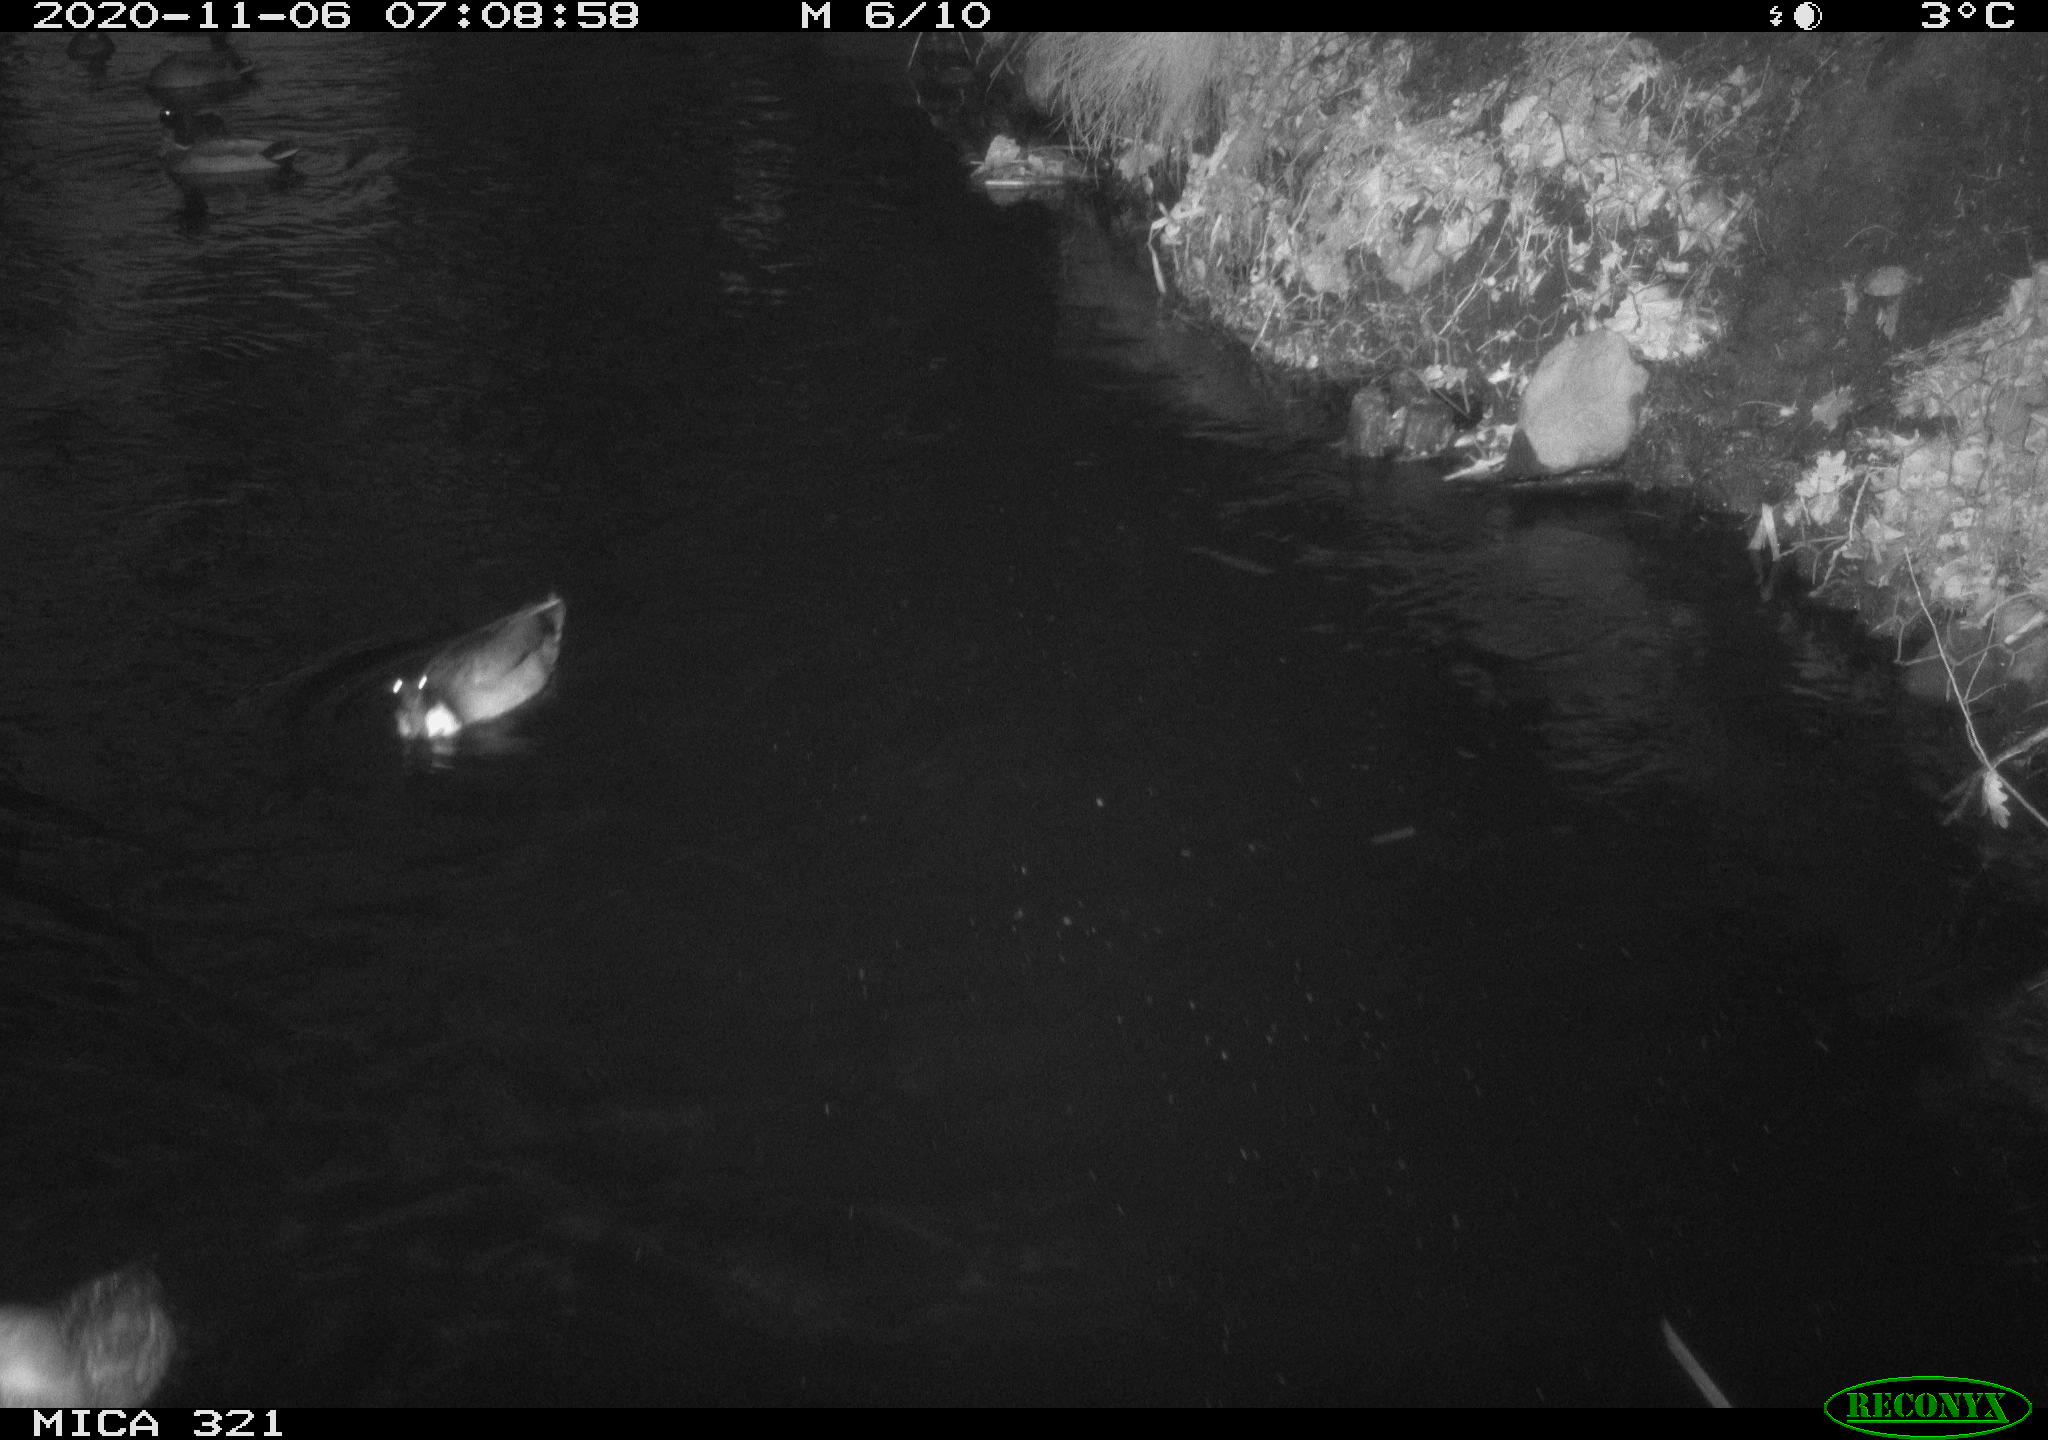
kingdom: Animalia
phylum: Chordata
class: Aves
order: Gruiformes
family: Rallidae
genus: Gallinula
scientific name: Gallinula chloropus
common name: Common moorhen
